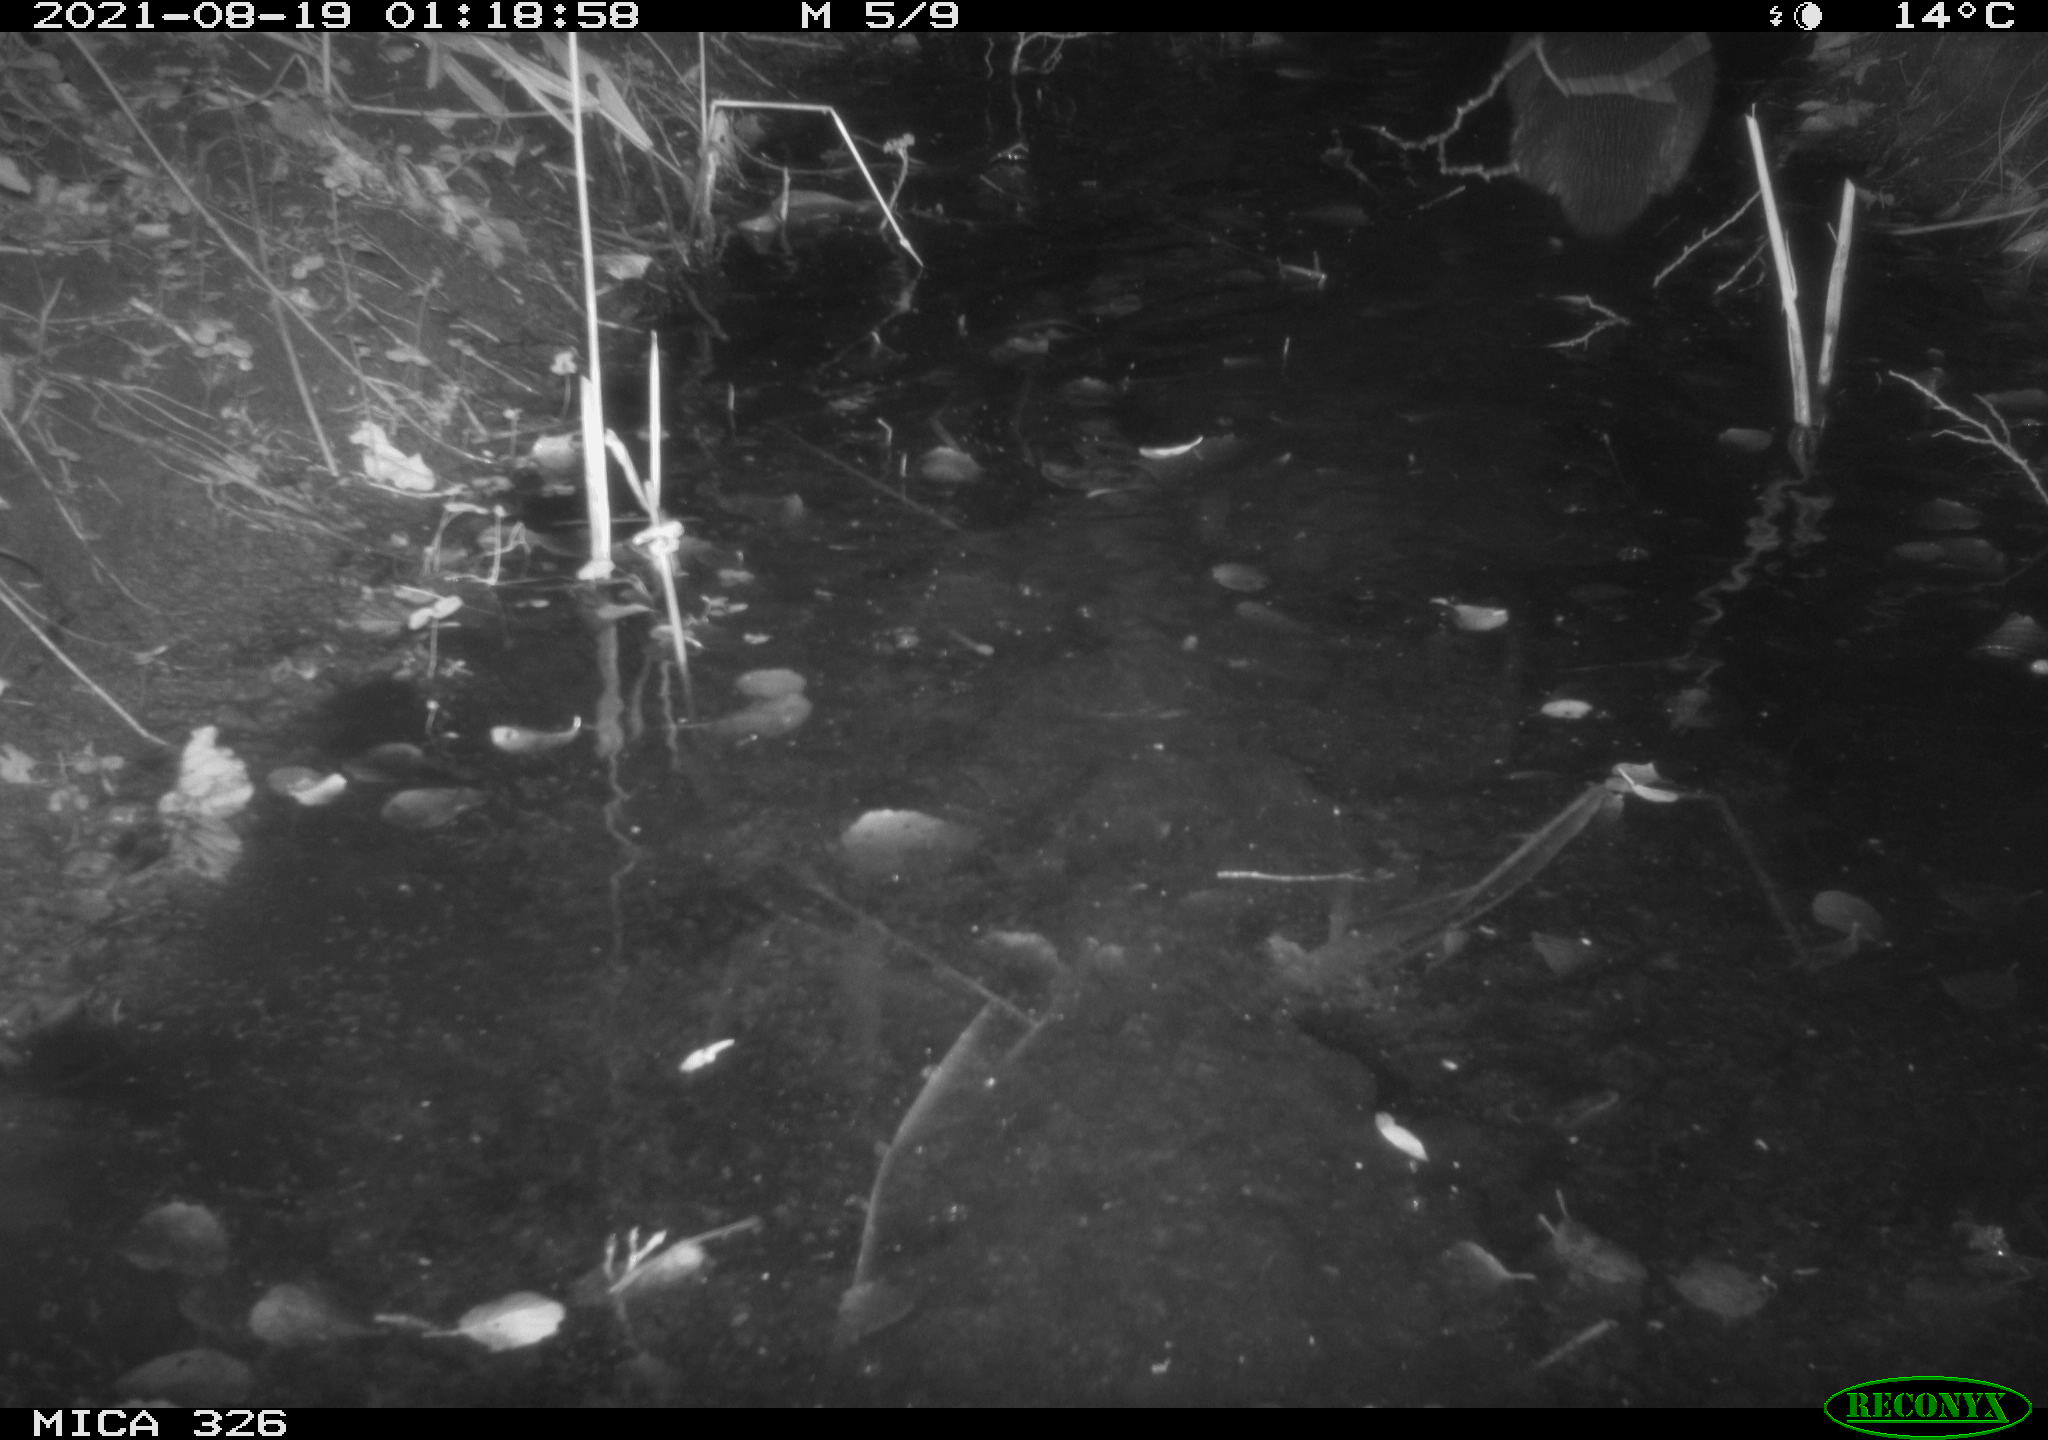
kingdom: Animalia
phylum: Chordata
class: Mammalia
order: Carnivora
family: Mustelidae
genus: Lutra
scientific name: Lutra lutra
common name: European otter
